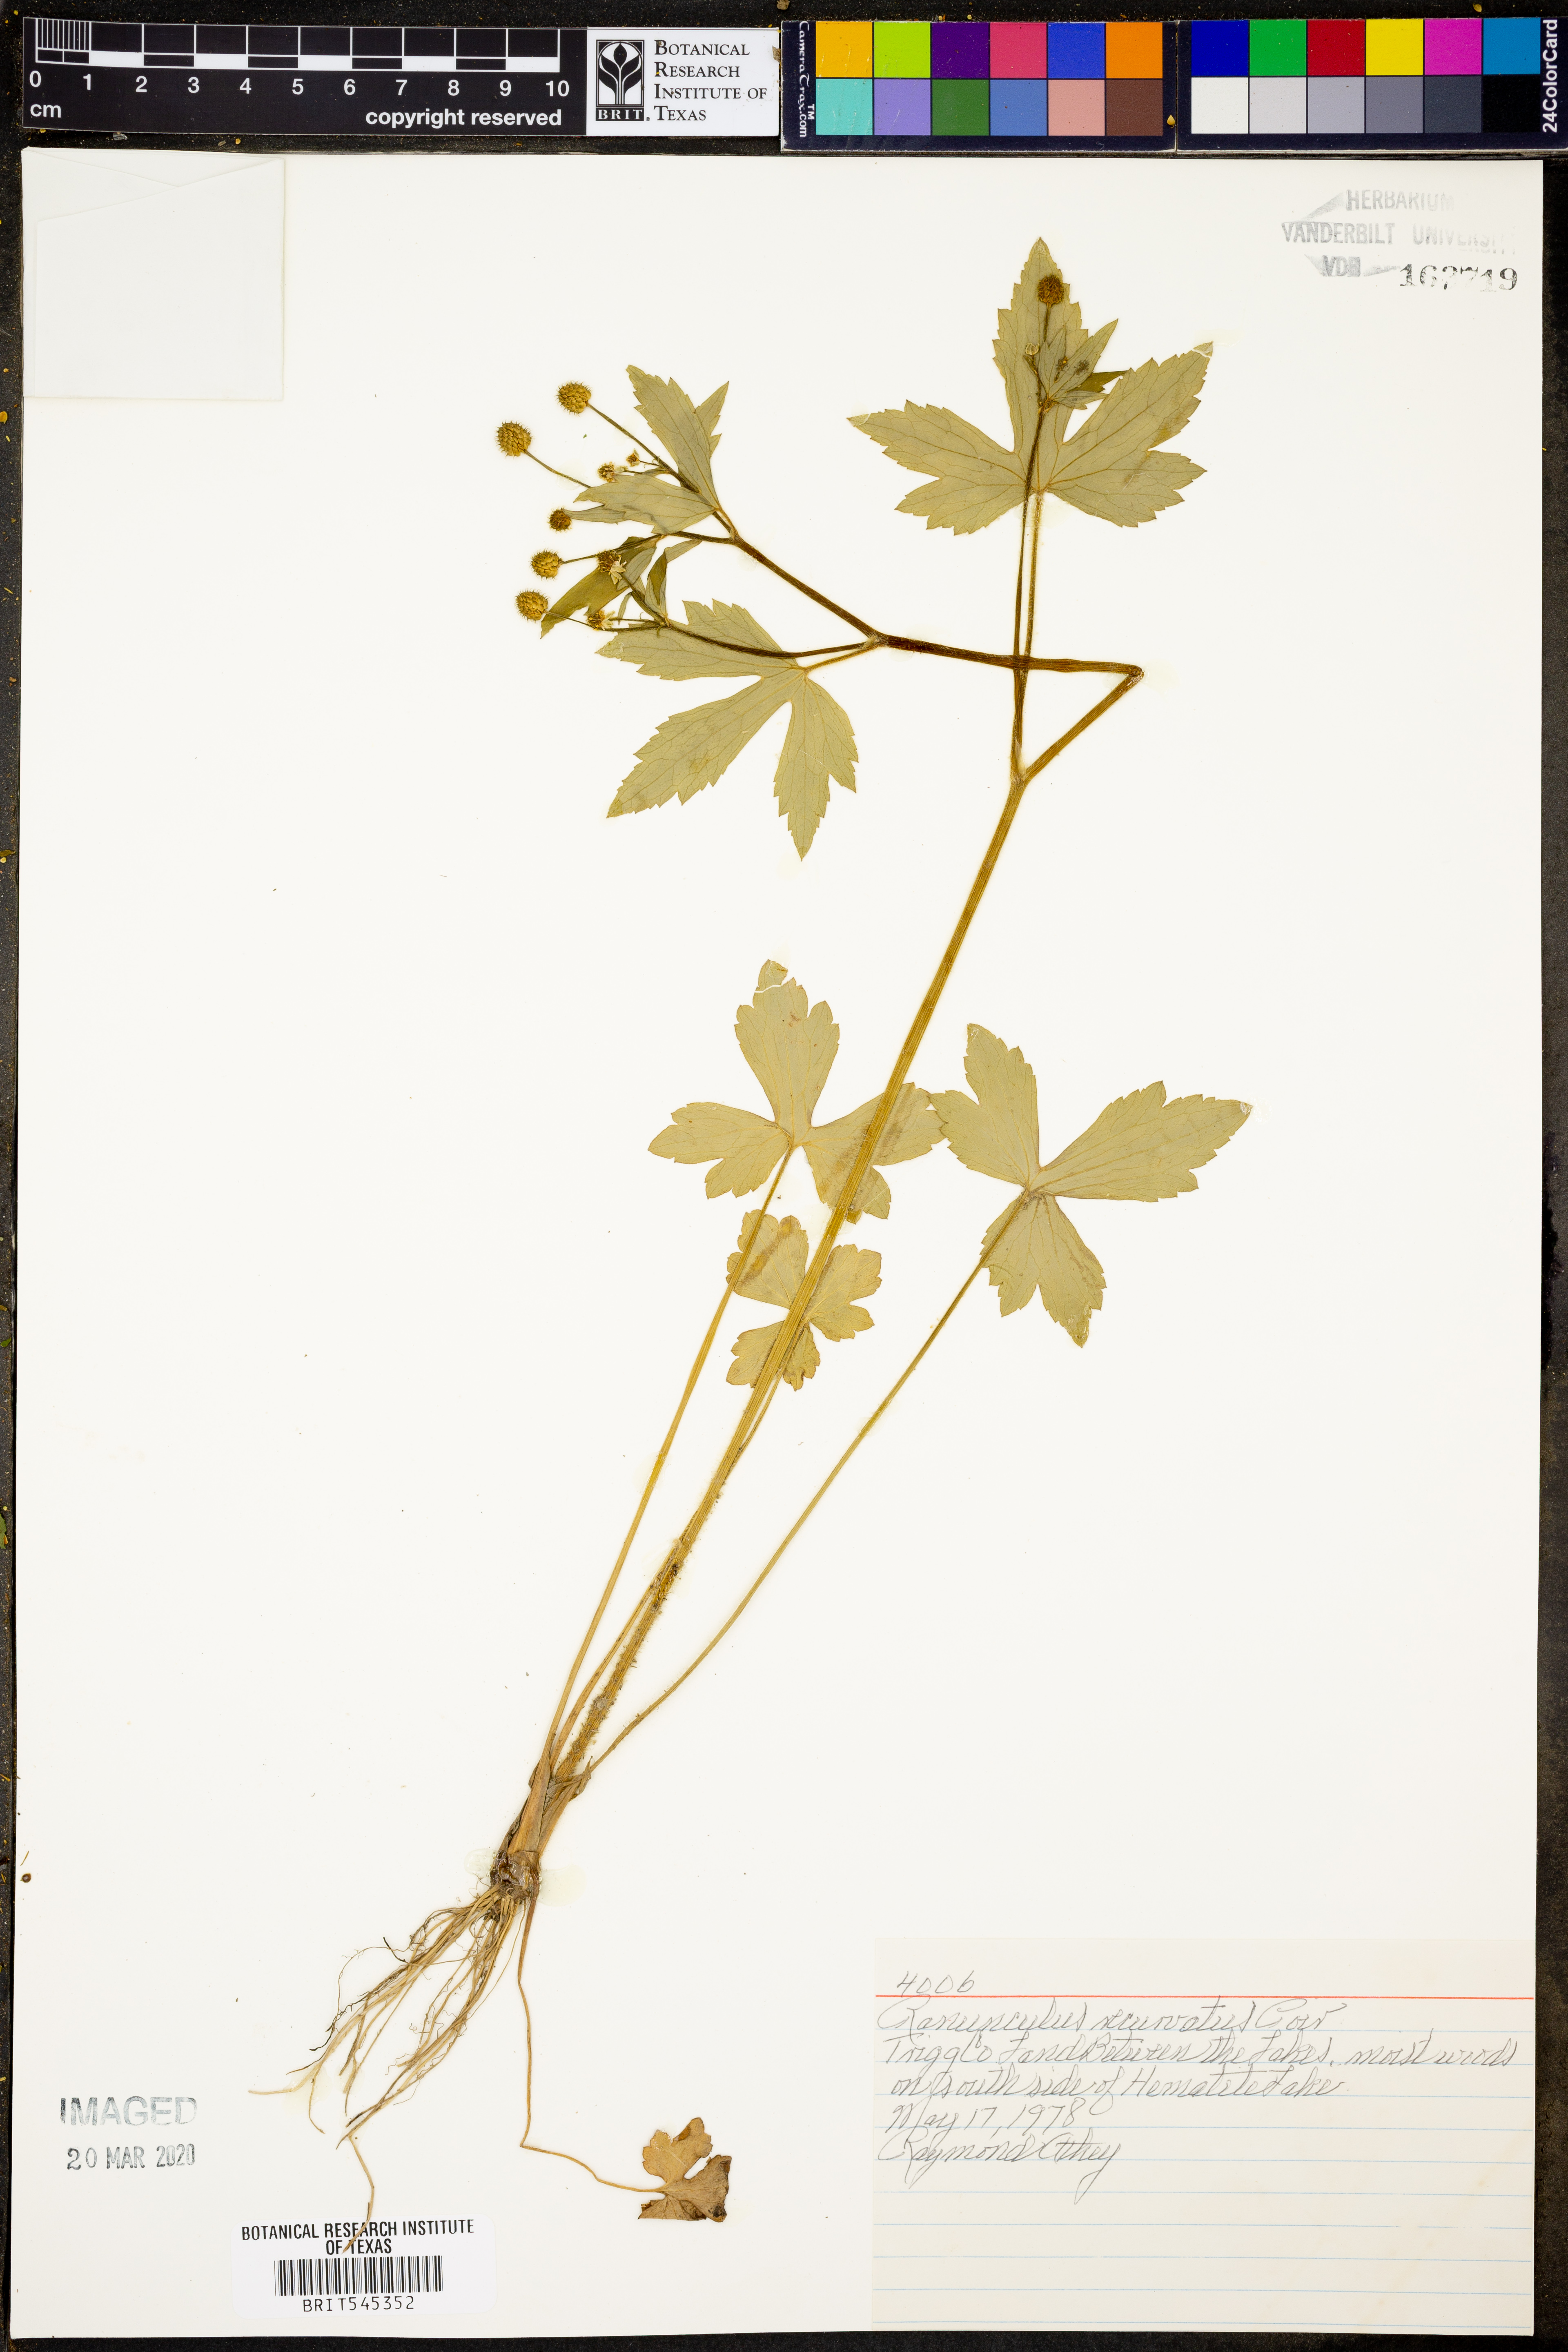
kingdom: Plantae
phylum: Tracheophyta
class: Magnoliopsida
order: Ranunculales
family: Ranunculaceae
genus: Ranunculus
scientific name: Ranunculus recurvatus
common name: Blisterwort
